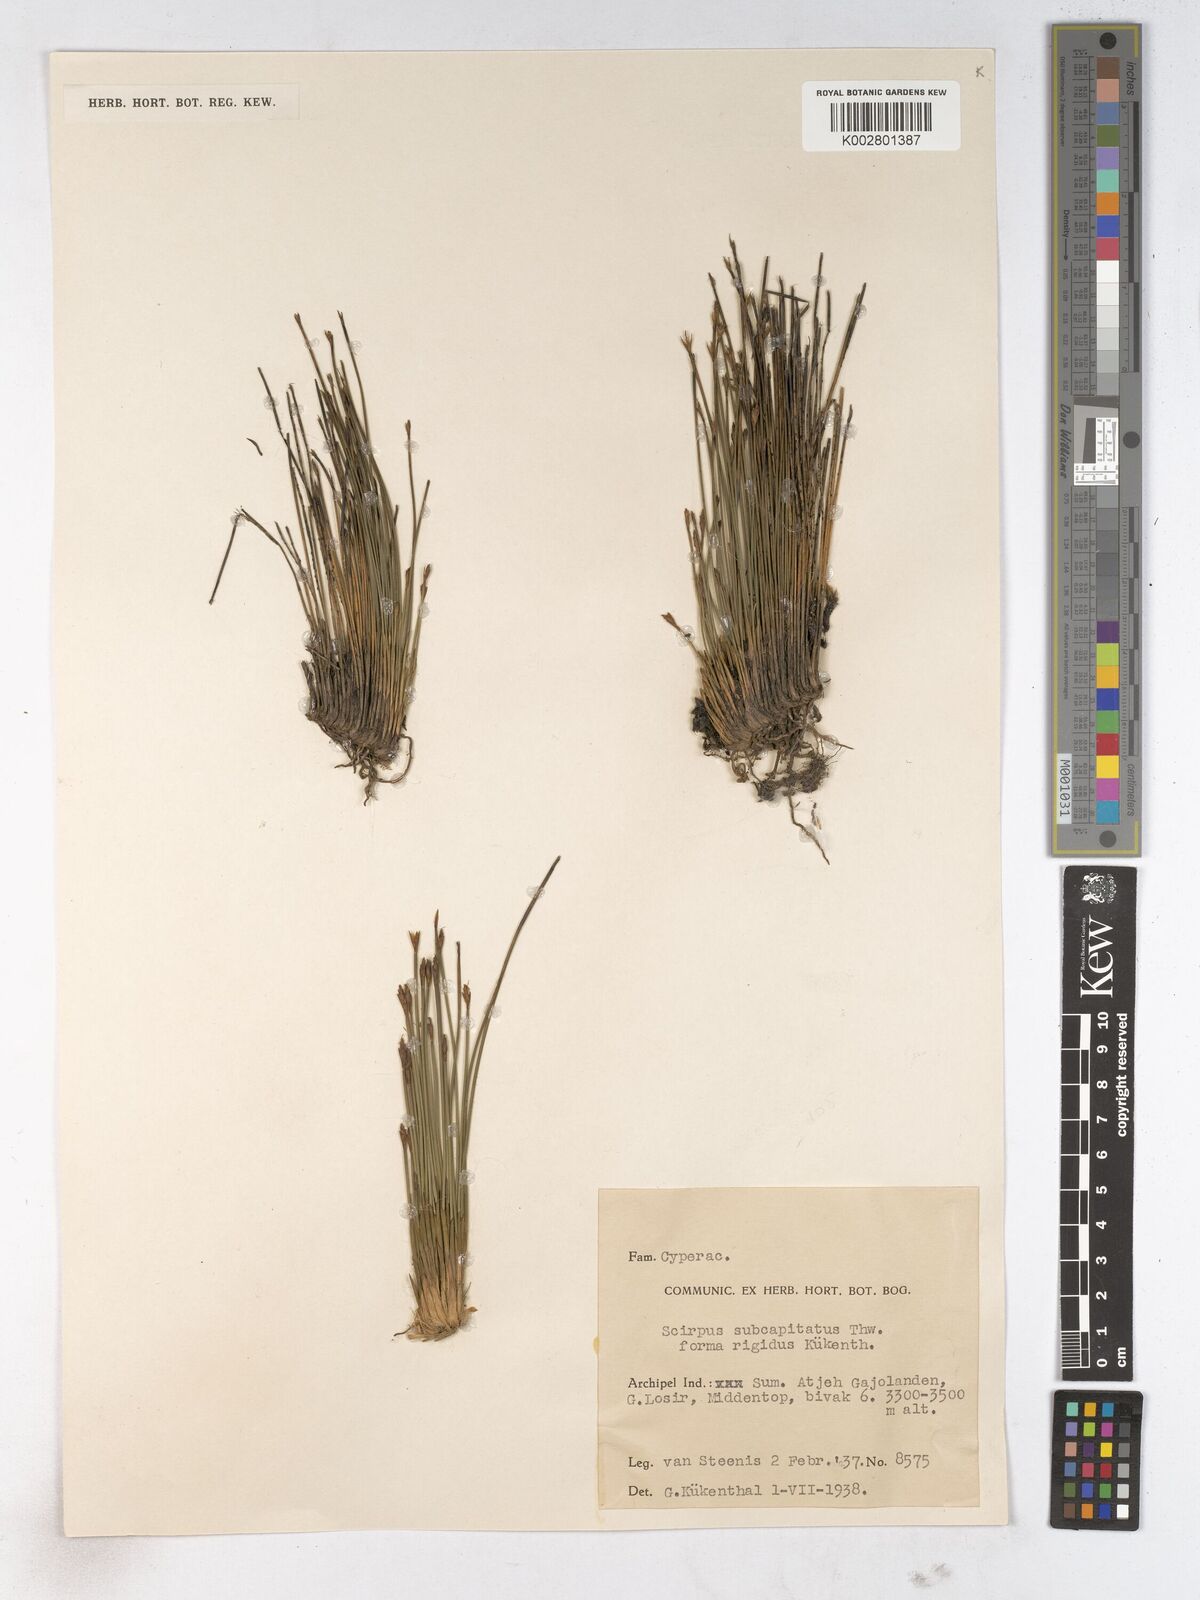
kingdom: Plantae
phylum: Tracheophyta
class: Liliopsida
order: Poales
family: Cyperaceae
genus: Trichophorum
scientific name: Trichophorum subcapitatum
